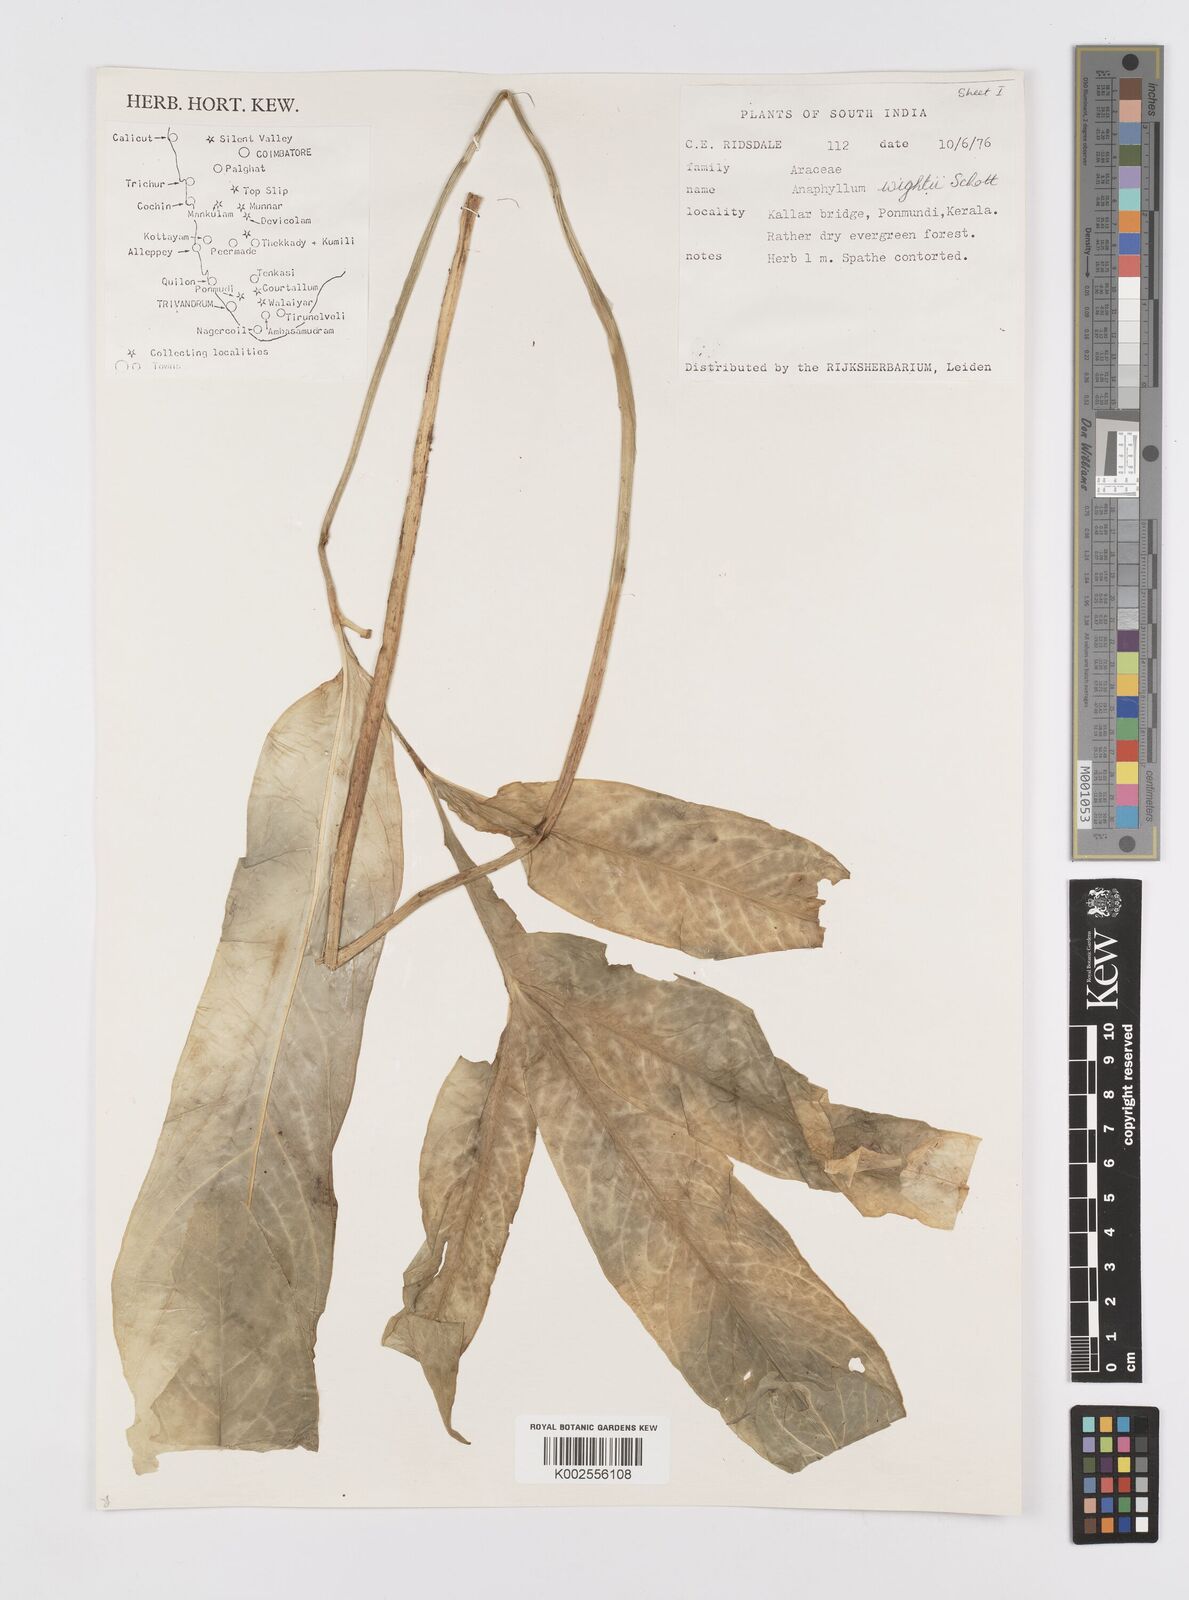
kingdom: Plantae
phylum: Tracheophyta
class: Liliopsida
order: Alismatales
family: Araceae
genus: Anaphyllum
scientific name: Anaphyllum wightii
